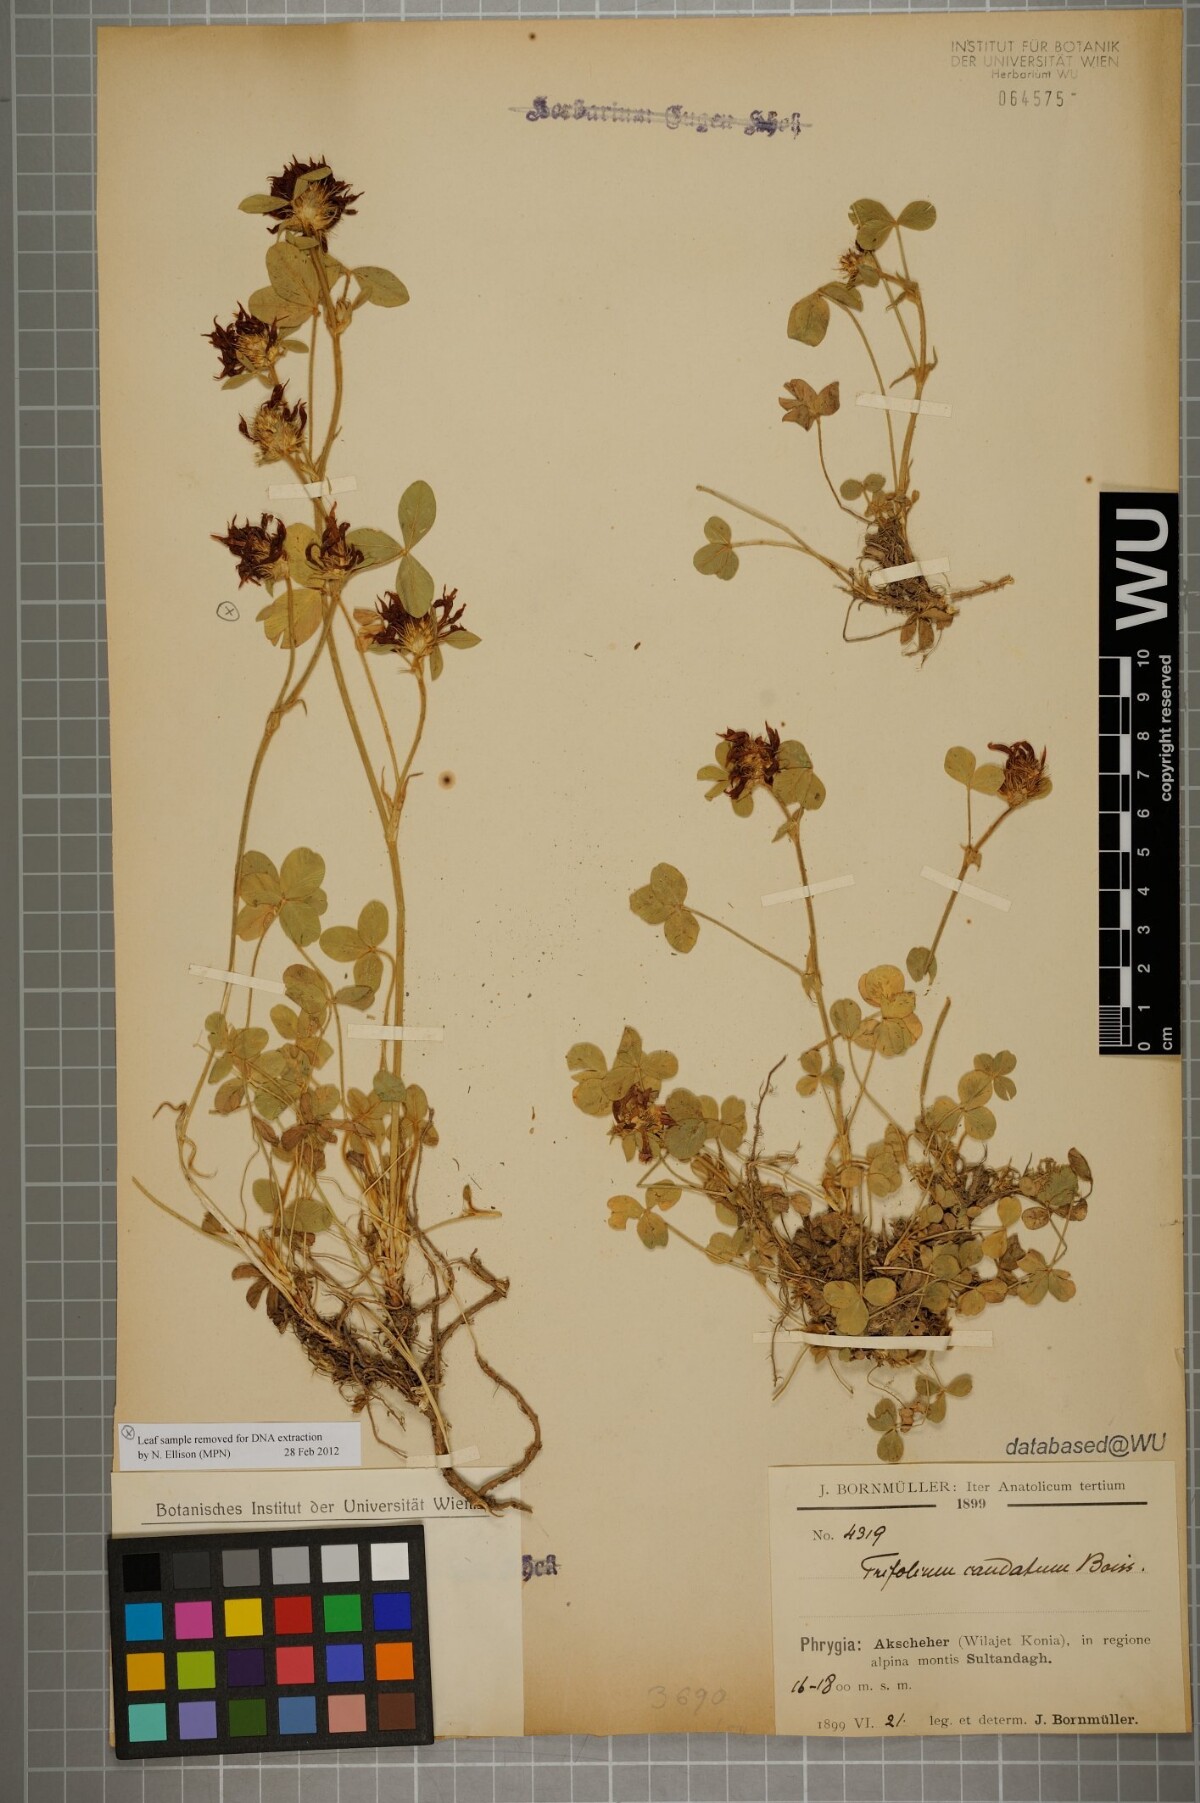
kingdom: Plantae
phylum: Tracheophyta
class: Magnoliopsida
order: Fabales
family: Fabaceae
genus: Trifolium
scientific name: Trifolium caudatum
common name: Tailed clover
